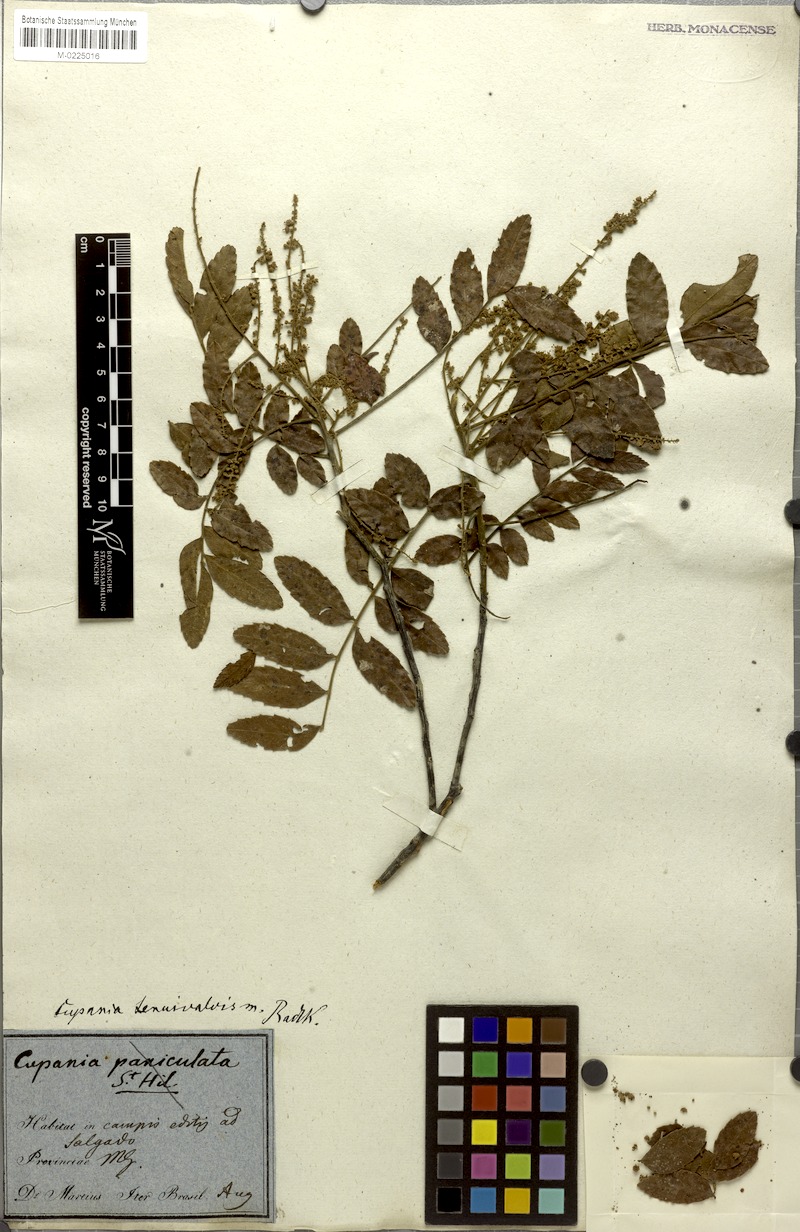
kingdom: Plantae
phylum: Tracheophyta
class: Magnoliopsida
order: Sapindales
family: Sapindaceae
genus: Cupania
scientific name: Cupania tenuivalvis
